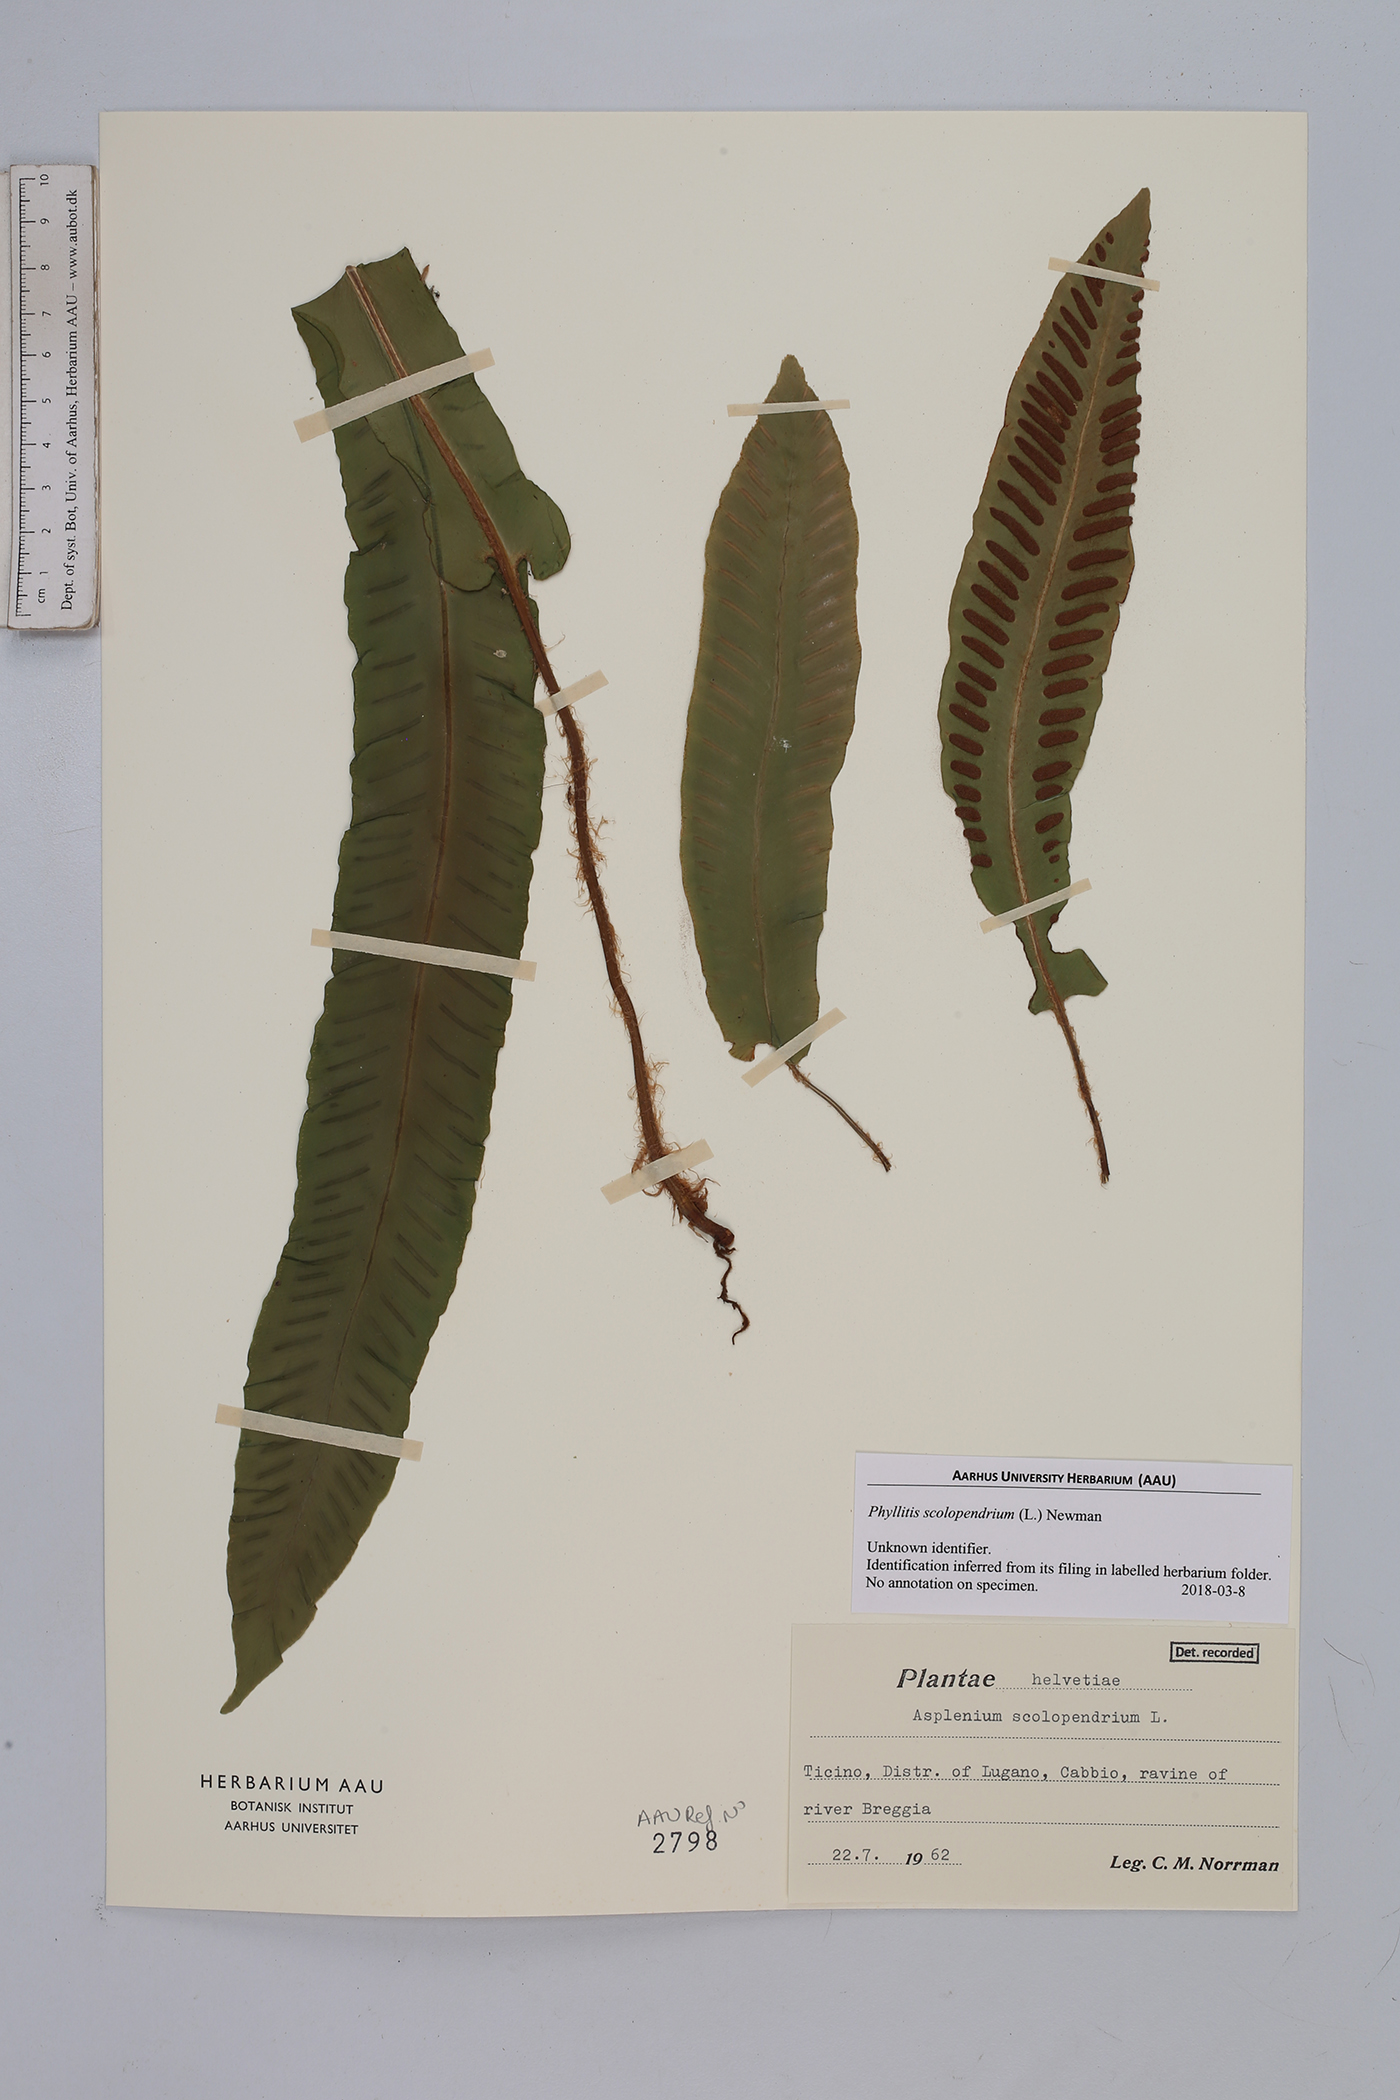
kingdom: Plantae
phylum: Tracheophyta
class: Polypodiopsida
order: Polypodiales
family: Aspleniaceae
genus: Asplenium
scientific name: Asplenium scolopendrium
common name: Hart's-tongue fern
